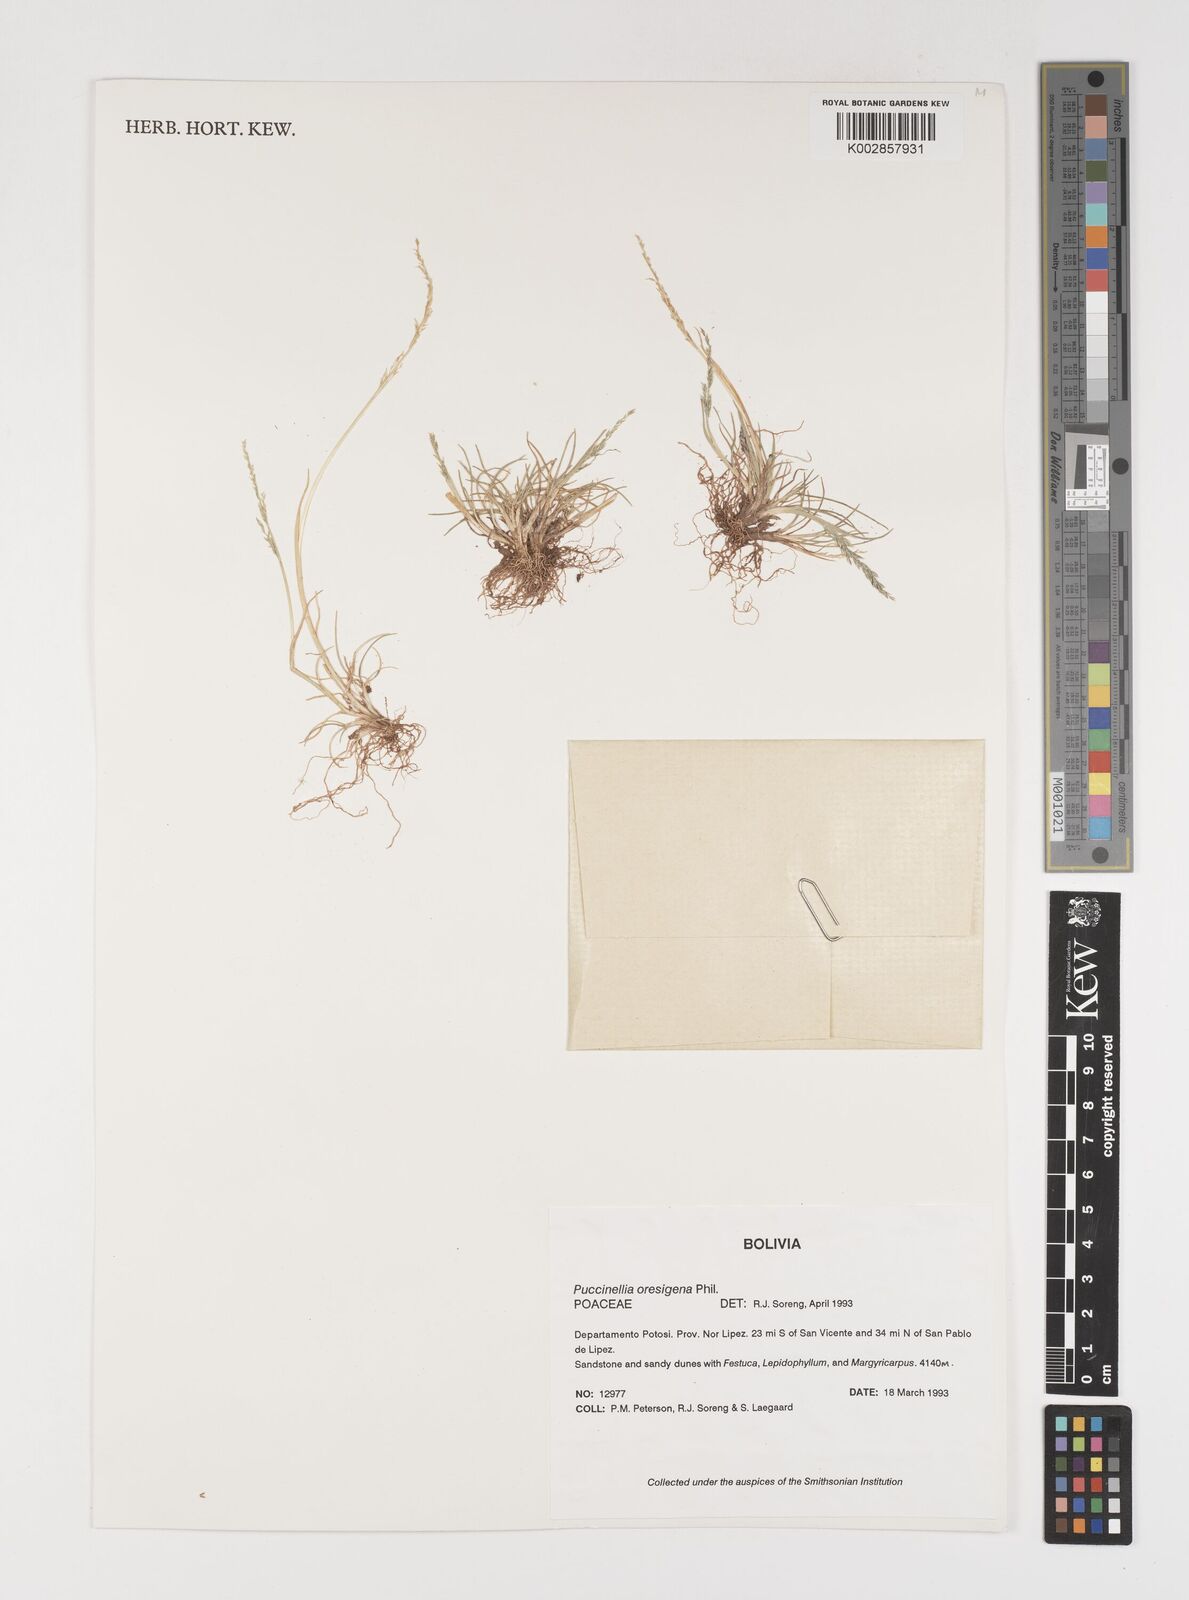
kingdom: Plantae
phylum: Tracheophyta
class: Liliopsida
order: Poales
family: Poaceae
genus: Puccinellia
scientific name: Puccinellia frigida
